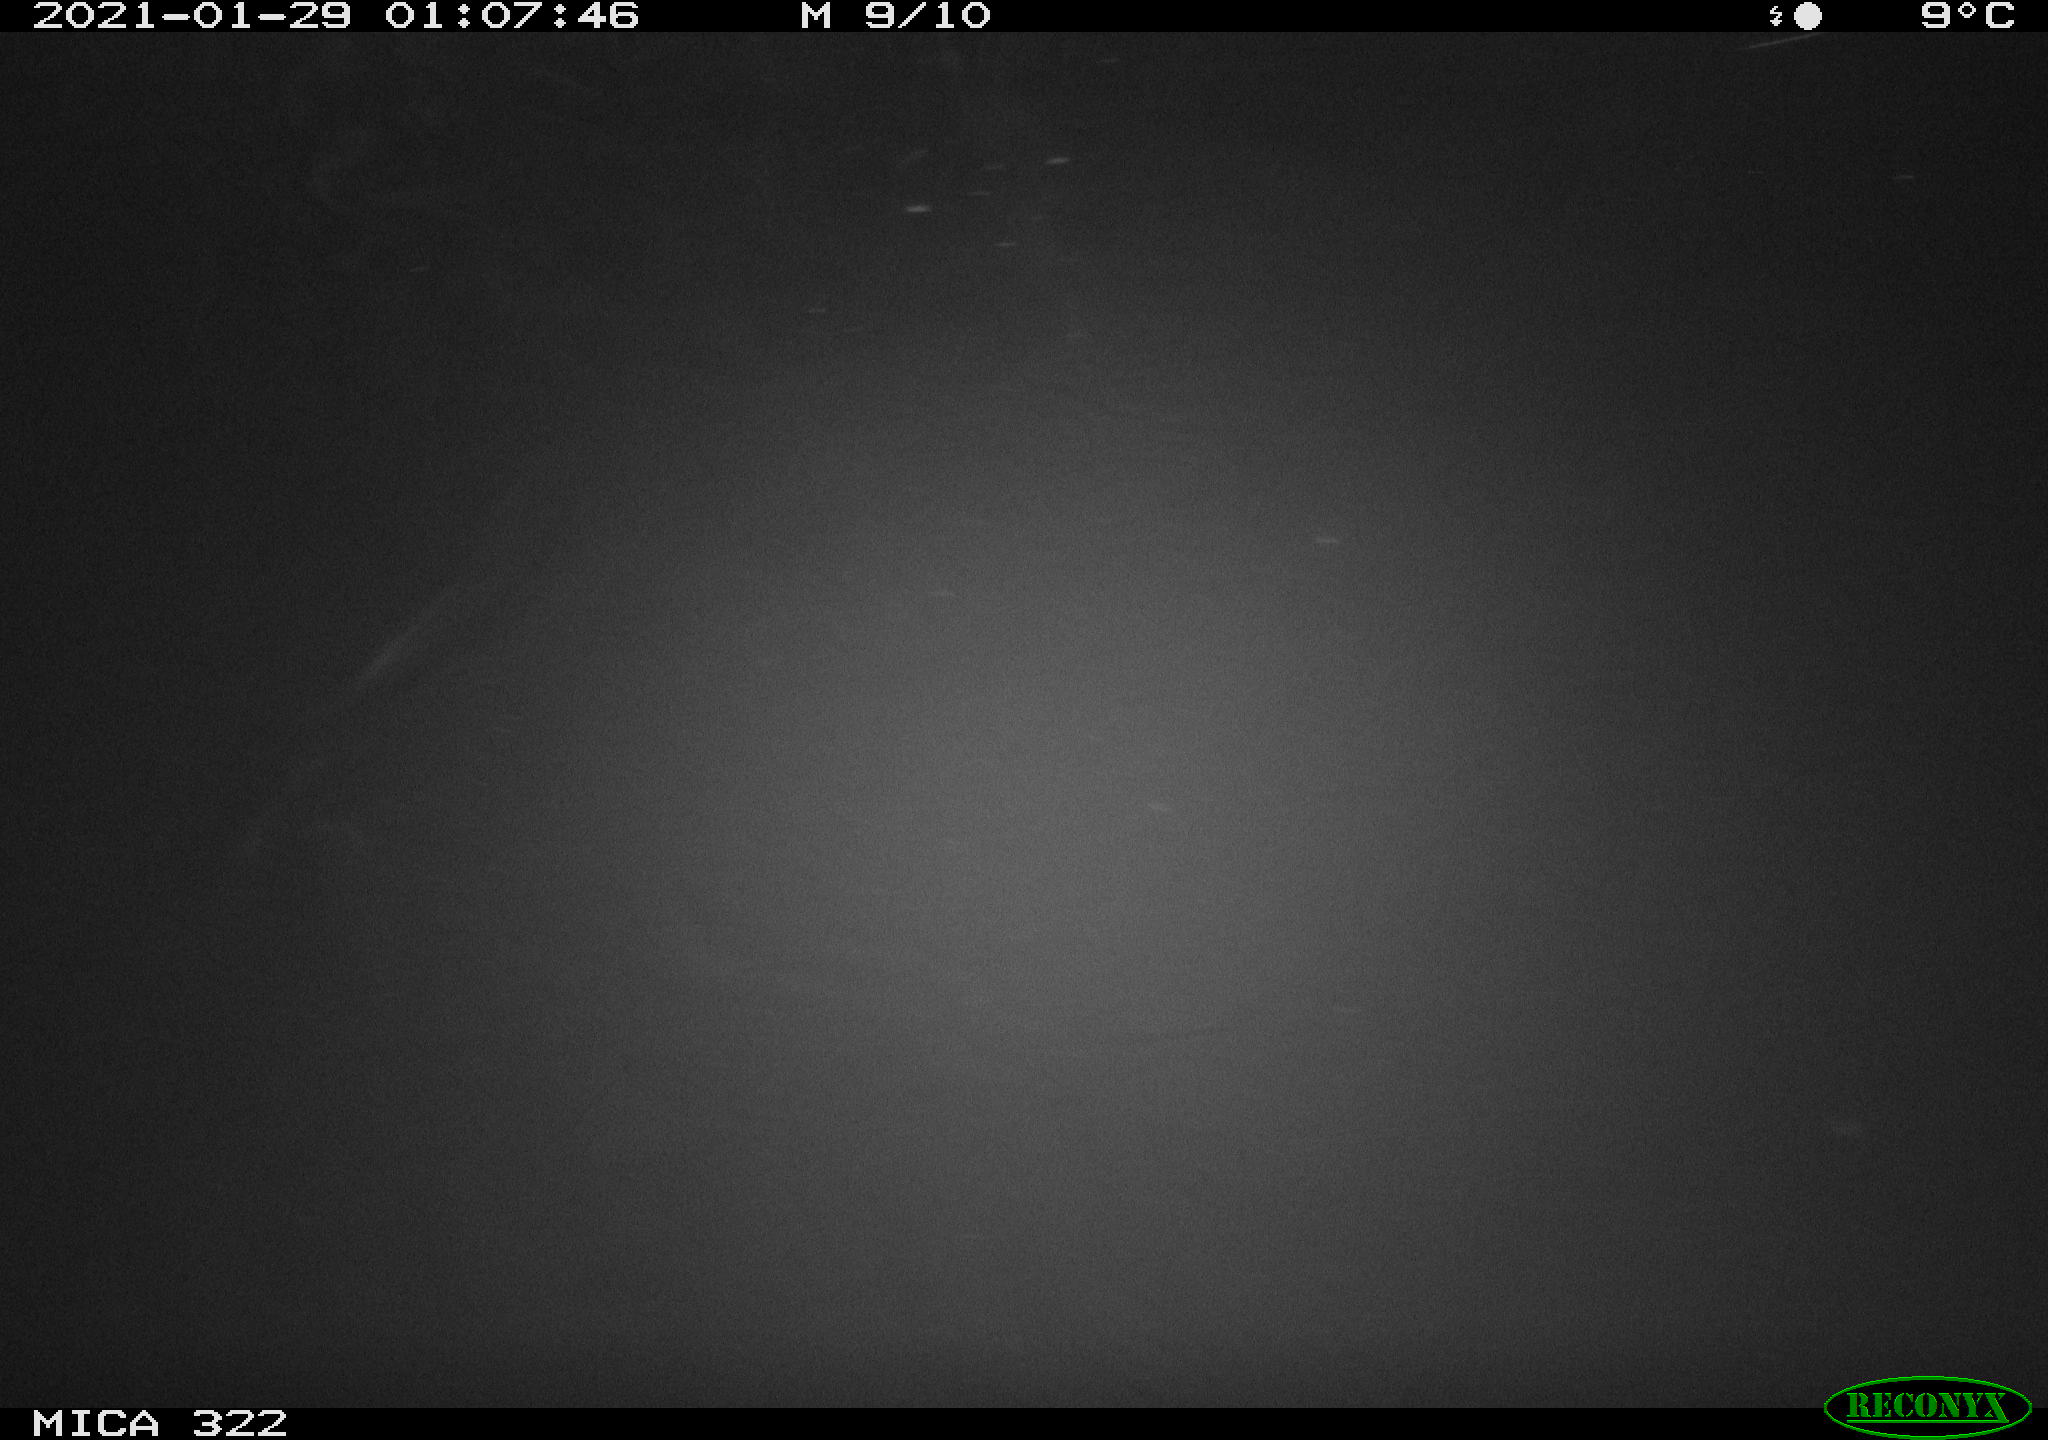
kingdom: Animalia
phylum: Chordata
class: Mammalia
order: Rodentia
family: Muridae
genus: Rattus
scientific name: Rattus norvegicus
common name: Brown rat
